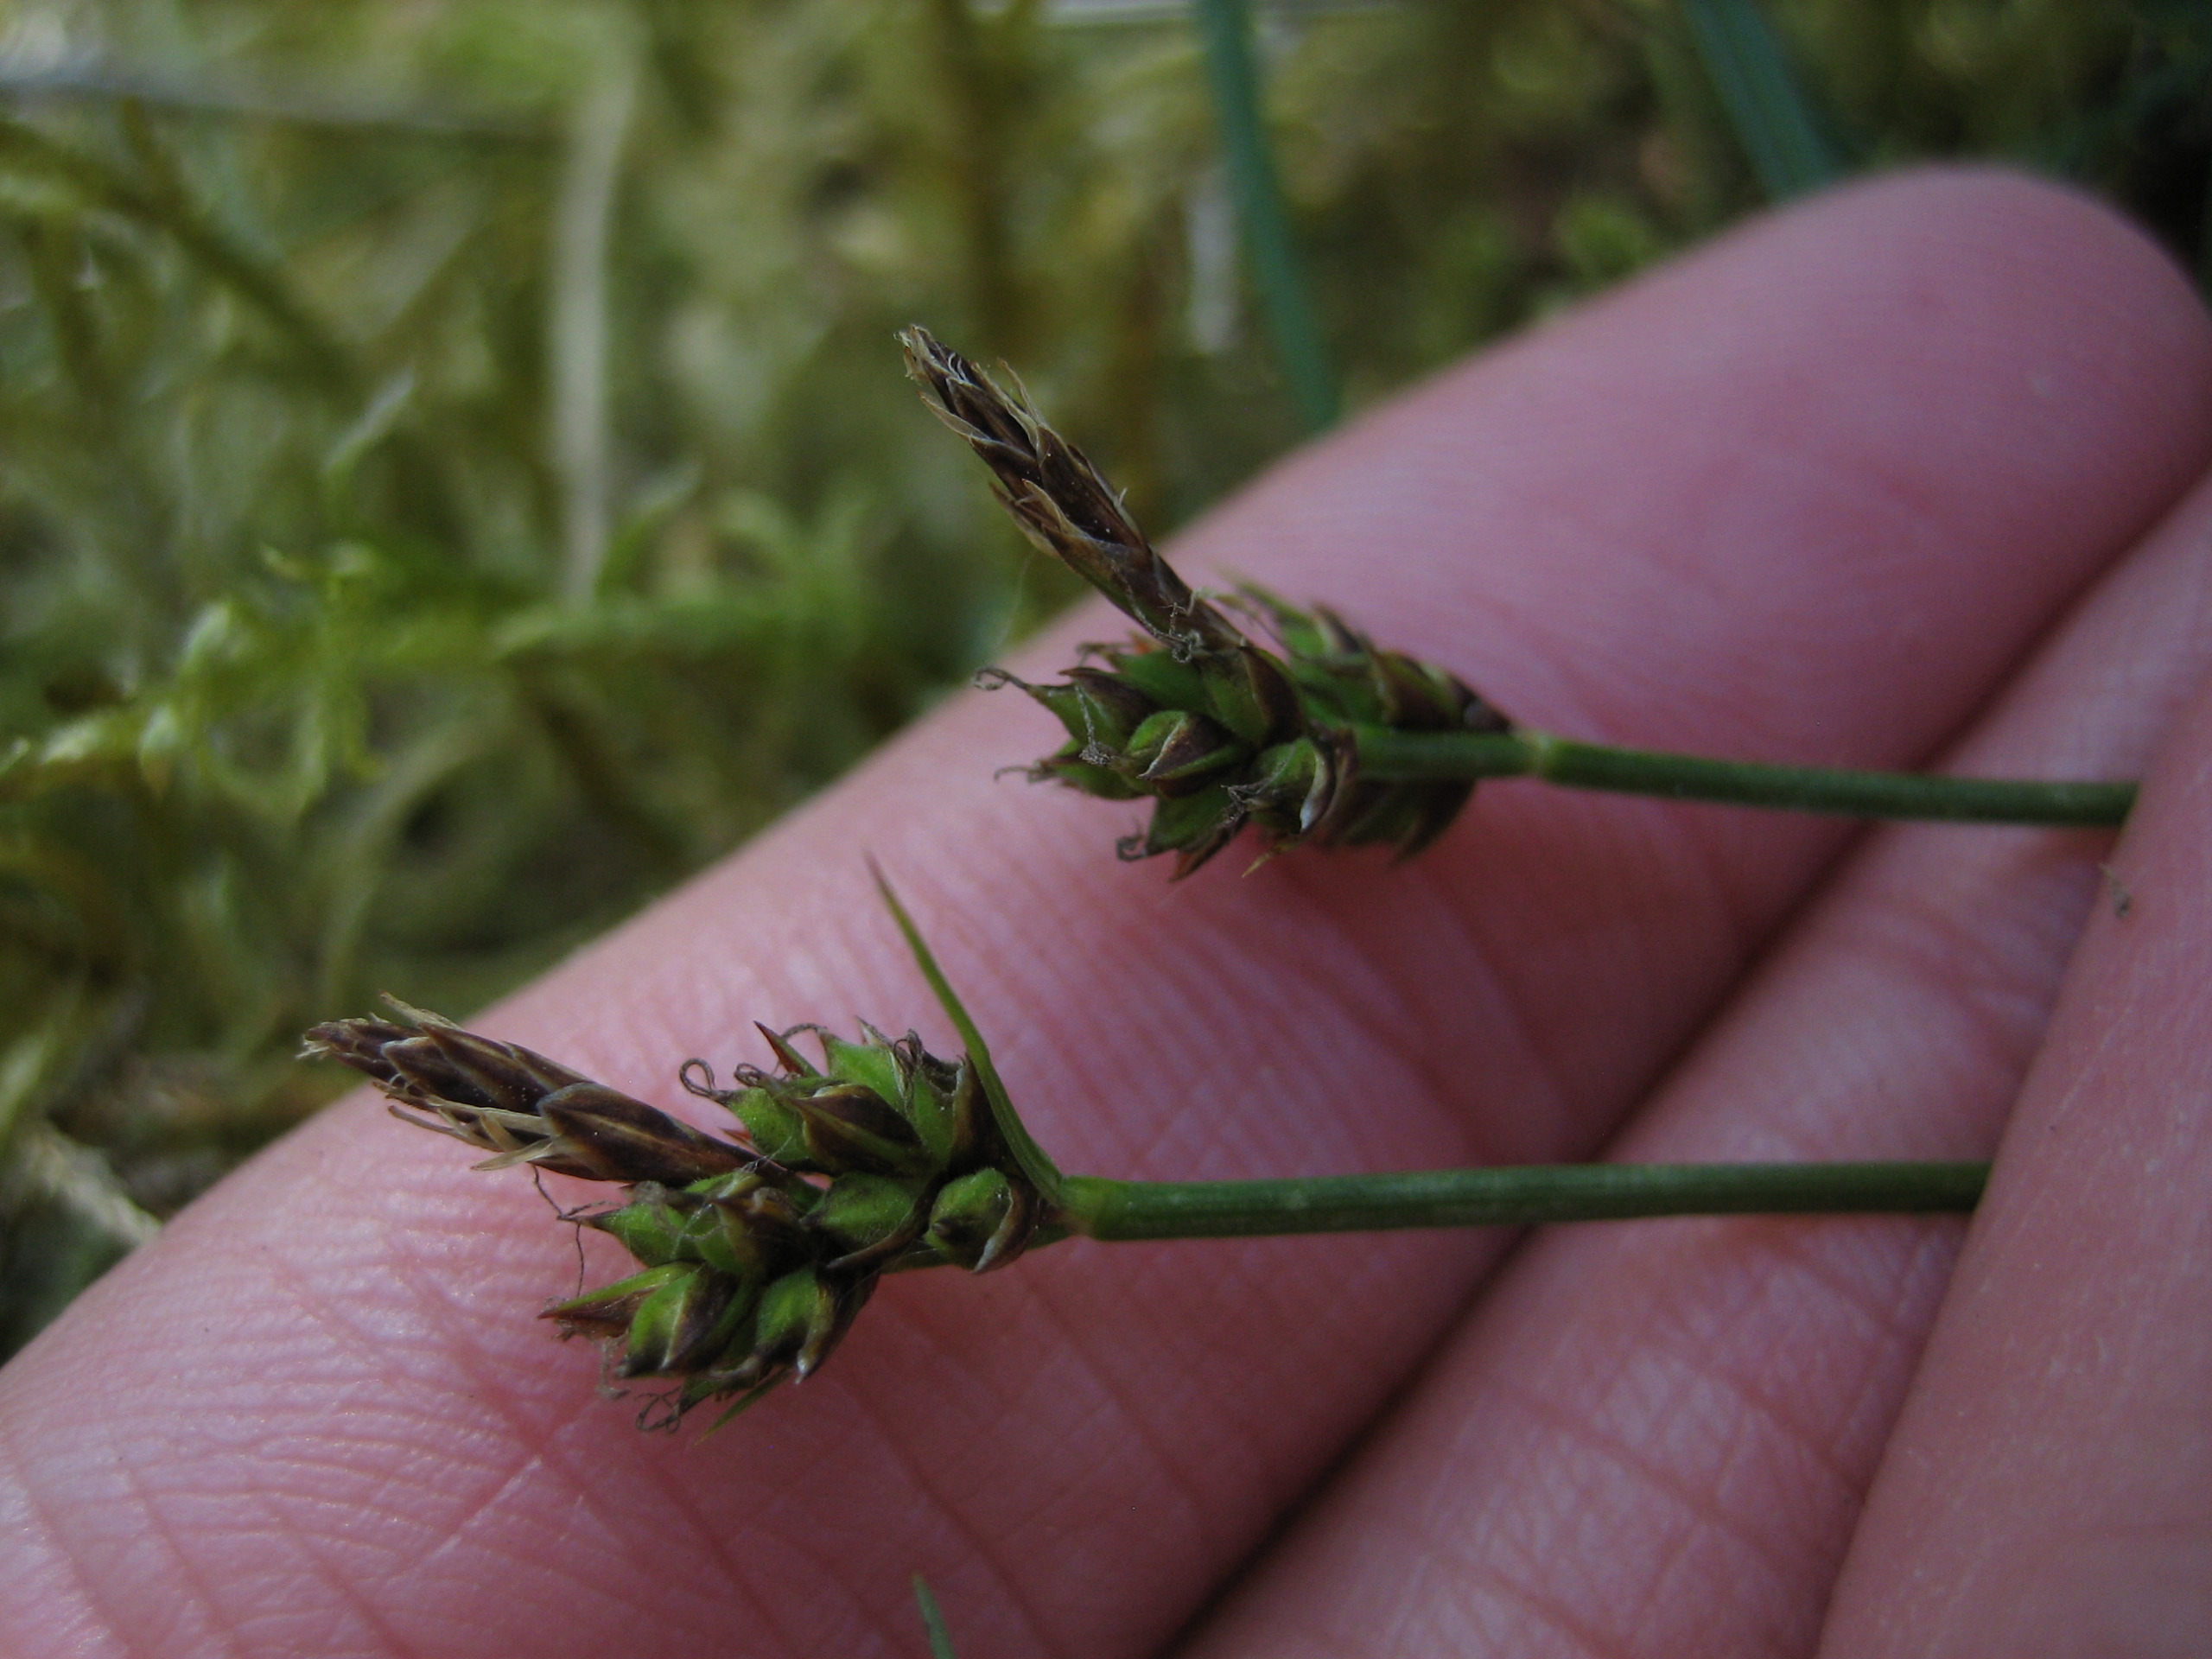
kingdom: Plantae
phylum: Tracheophyta
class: Liliopsida
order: Poales
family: Cyperaceae
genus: Carex
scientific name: Carex pilulifera
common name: Pille-star
